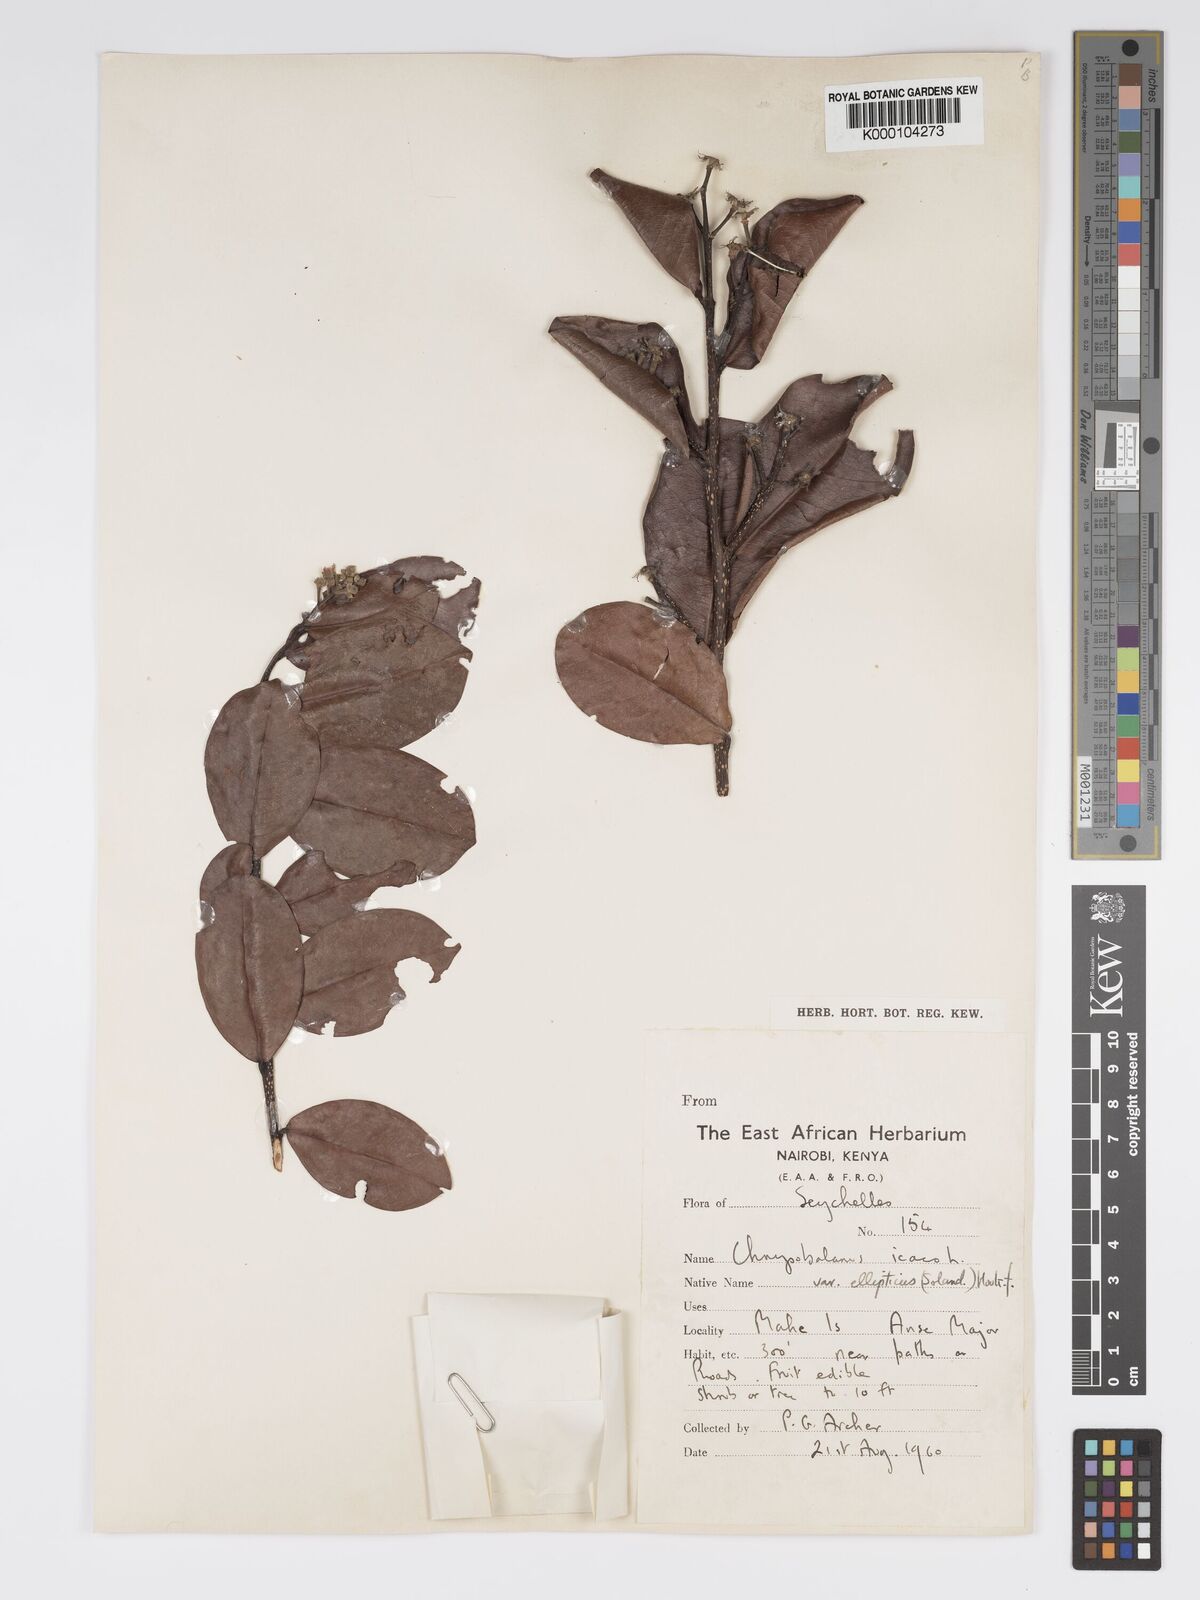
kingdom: Plantae
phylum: Tracheophyta
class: Magnoliopsida
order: Malpighiales
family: Chrysobalanaceae
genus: Chrysobalanus
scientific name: Chrysobalanus icaco
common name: Coco plum
